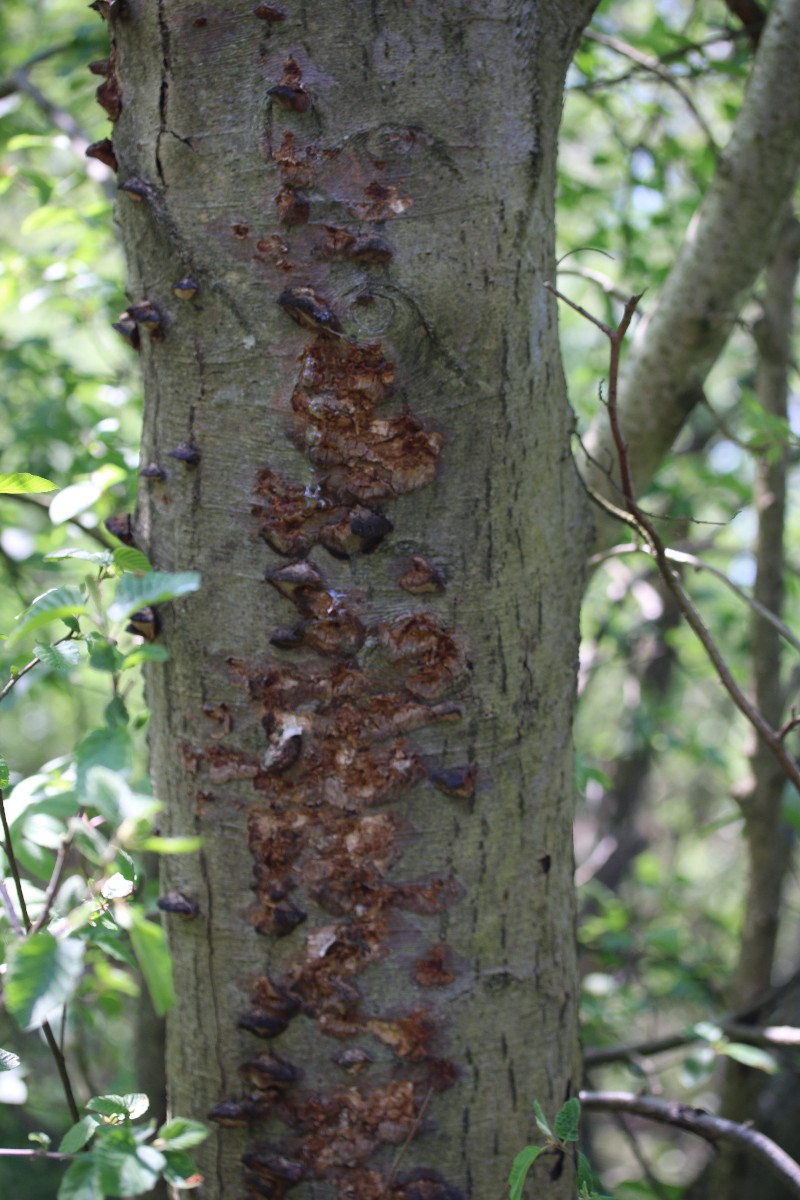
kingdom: Fungi
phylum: Basidiomycota
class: Agaricomycetes
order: Hymenochaetales
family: Hymenochaetaceae
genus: Xanthoporia
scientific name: Xanthoporia radiata
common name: elle-spejlporesvamp
